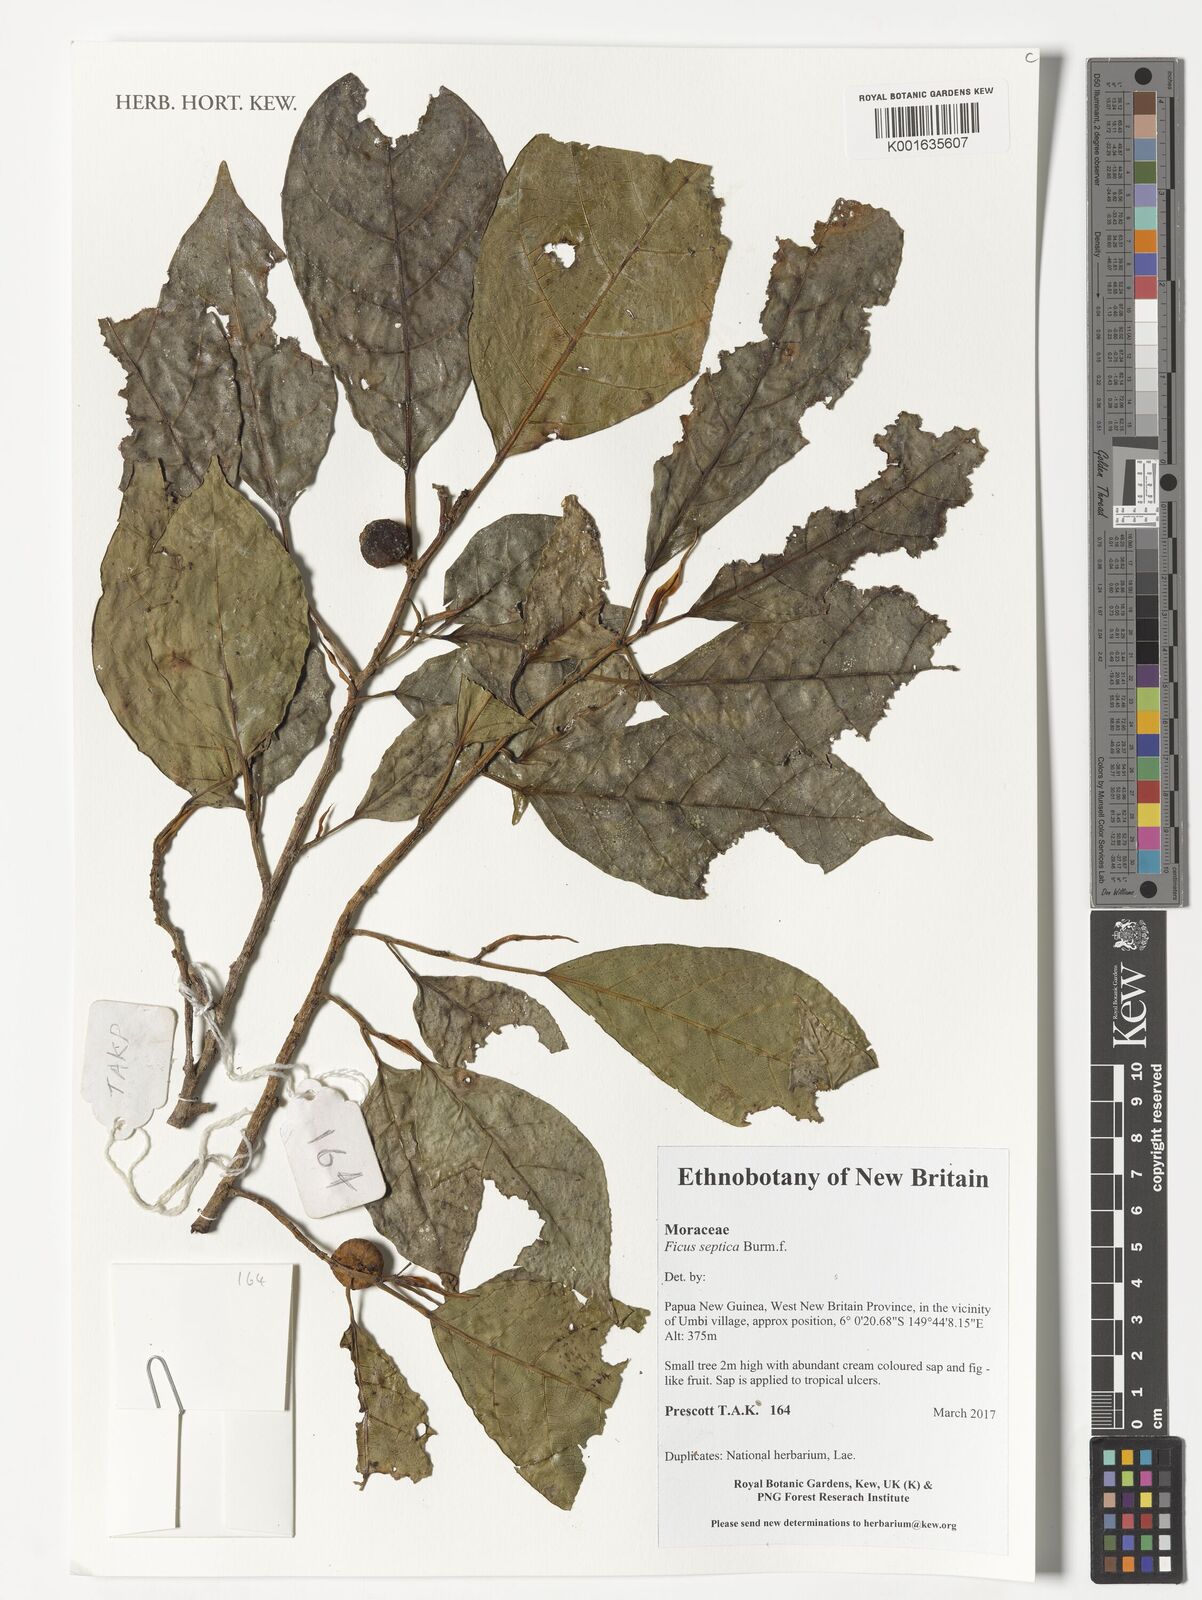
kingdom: Plantae
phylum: Tracheophyta
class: Magnoliopsida
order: Rosales
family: Moraceae
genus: Ficus
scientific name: Ficus septica
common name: Septic fig
